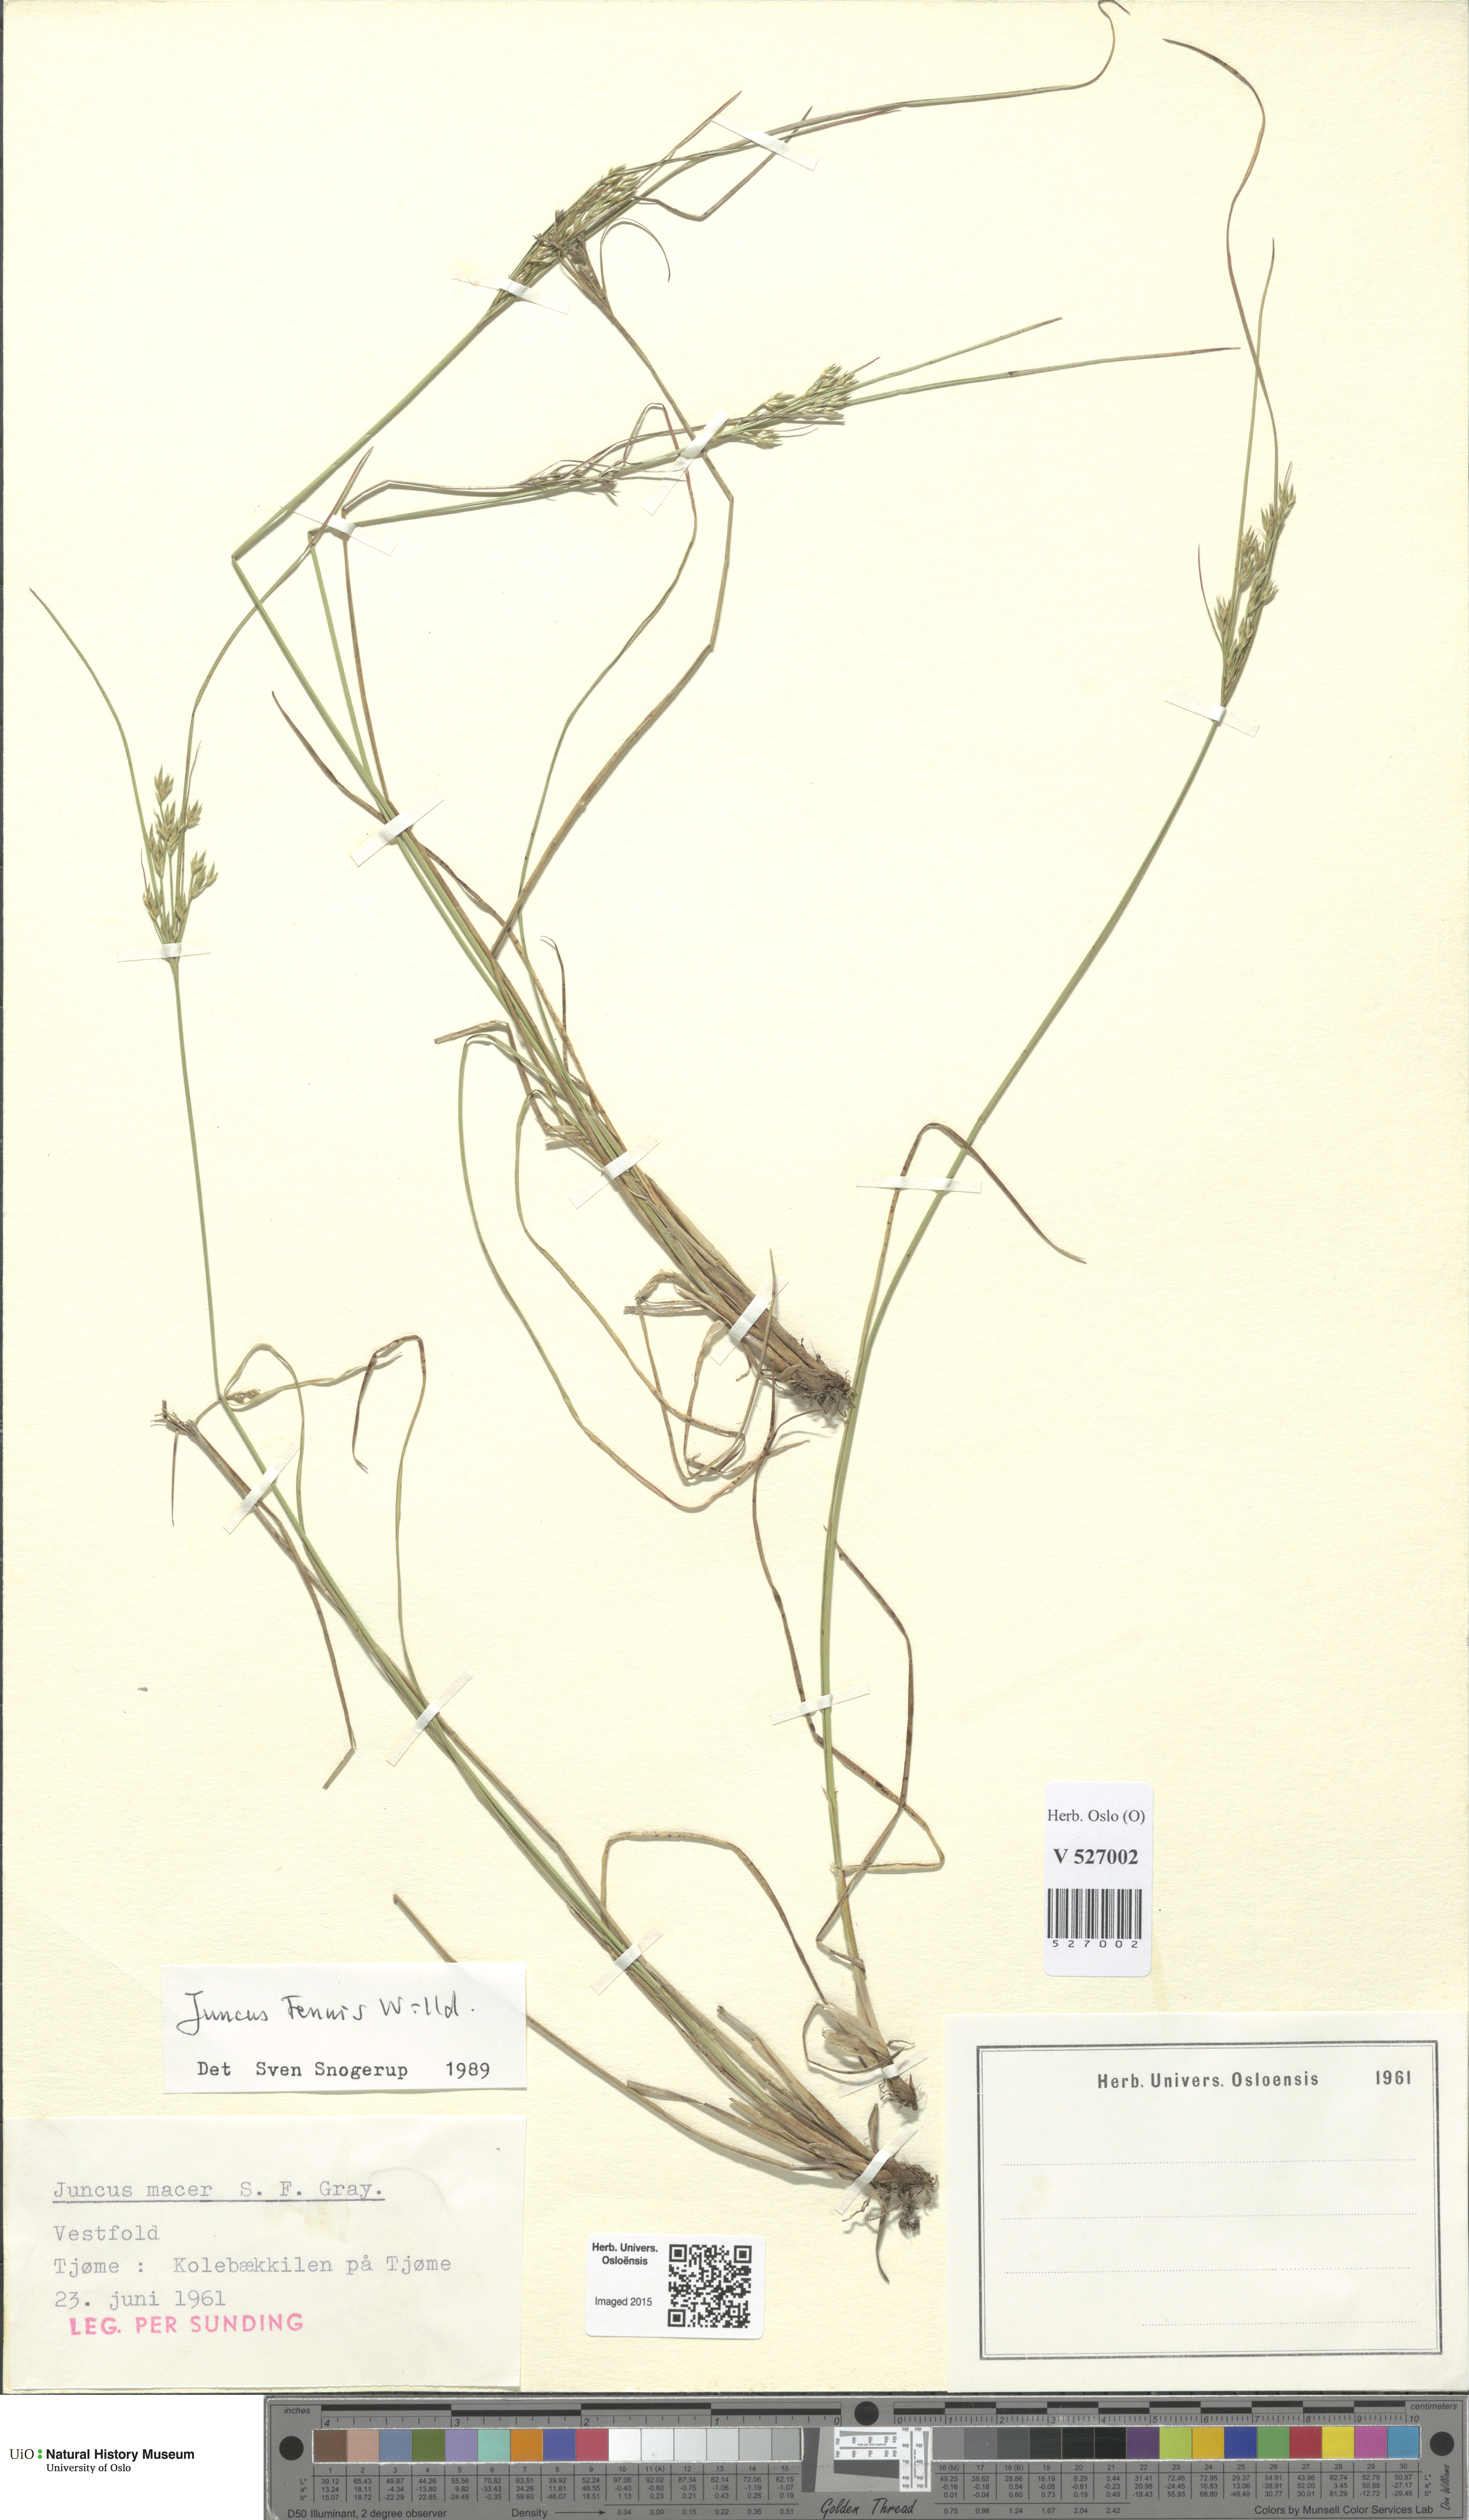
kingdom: Plantae
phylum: Tracheophyta
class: Liliopsida
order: Poales
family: Juncaceae
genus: Juncus
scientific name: Juncus tenuis
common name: Slender rush
